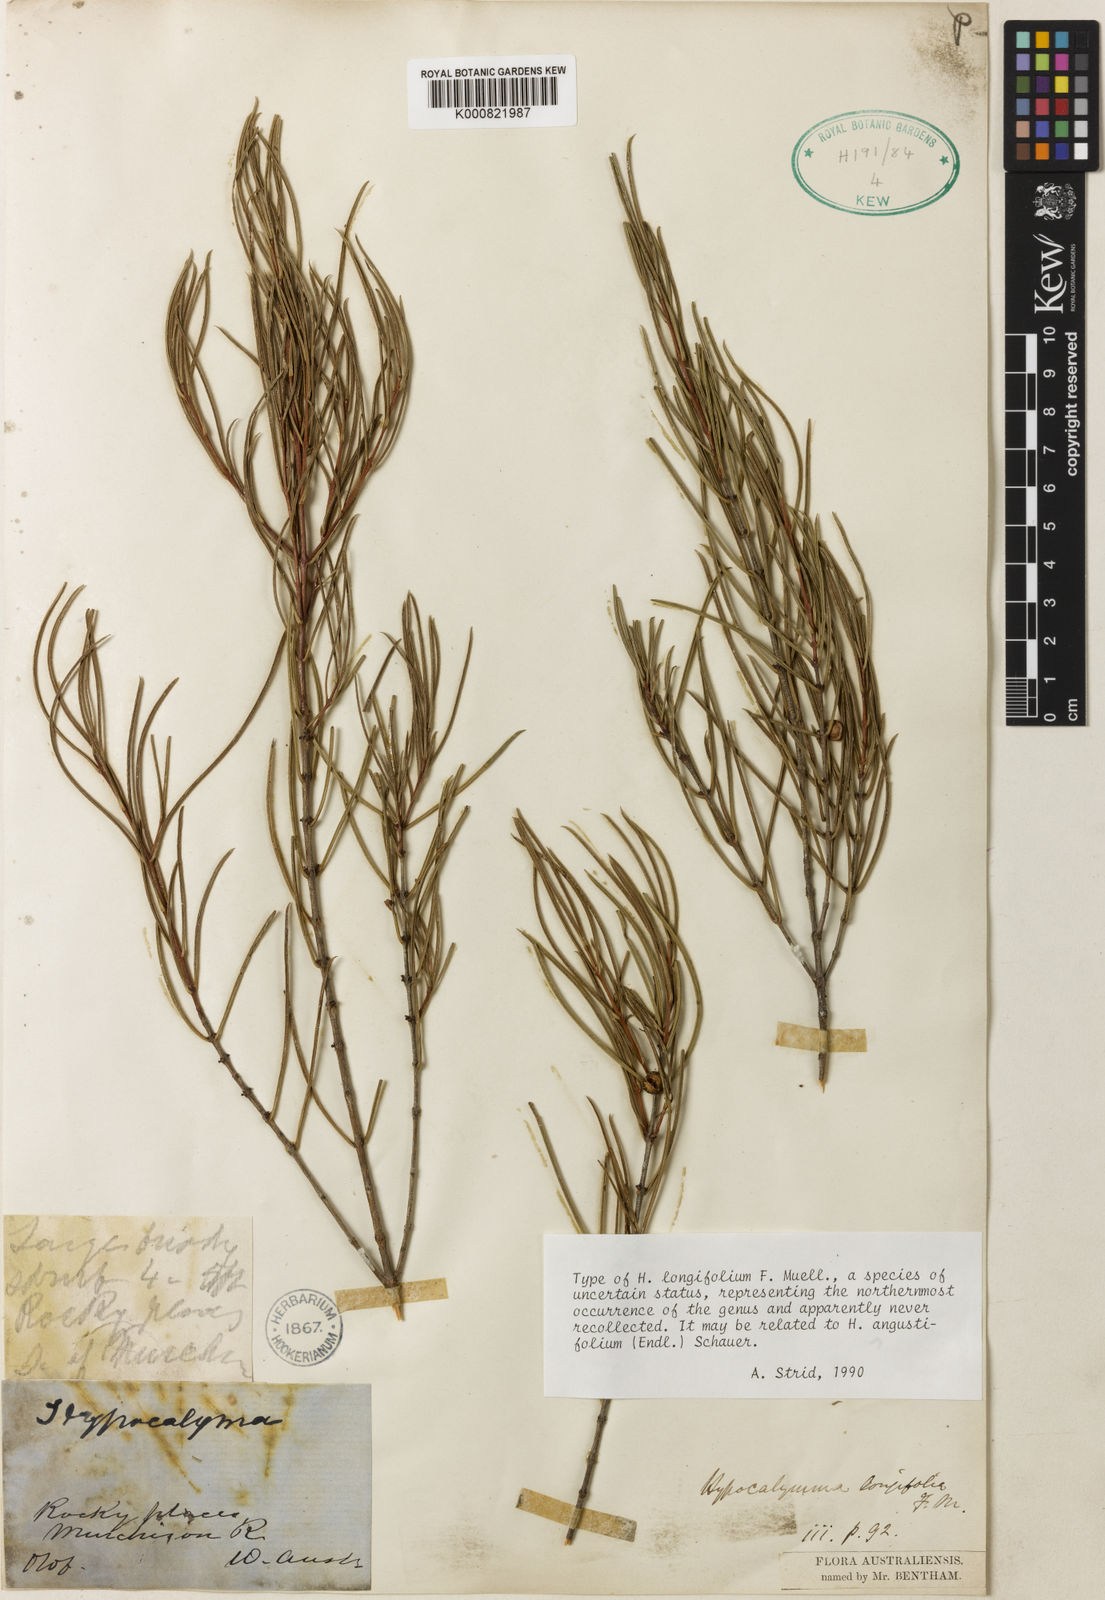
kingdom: Plantae
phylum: Tracheophyta
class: Magnoliopsida
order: Myrtales
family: Myrtaceae
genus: Hypocalymma
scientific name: Hypocalymma angustifolium
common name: White myrtle
